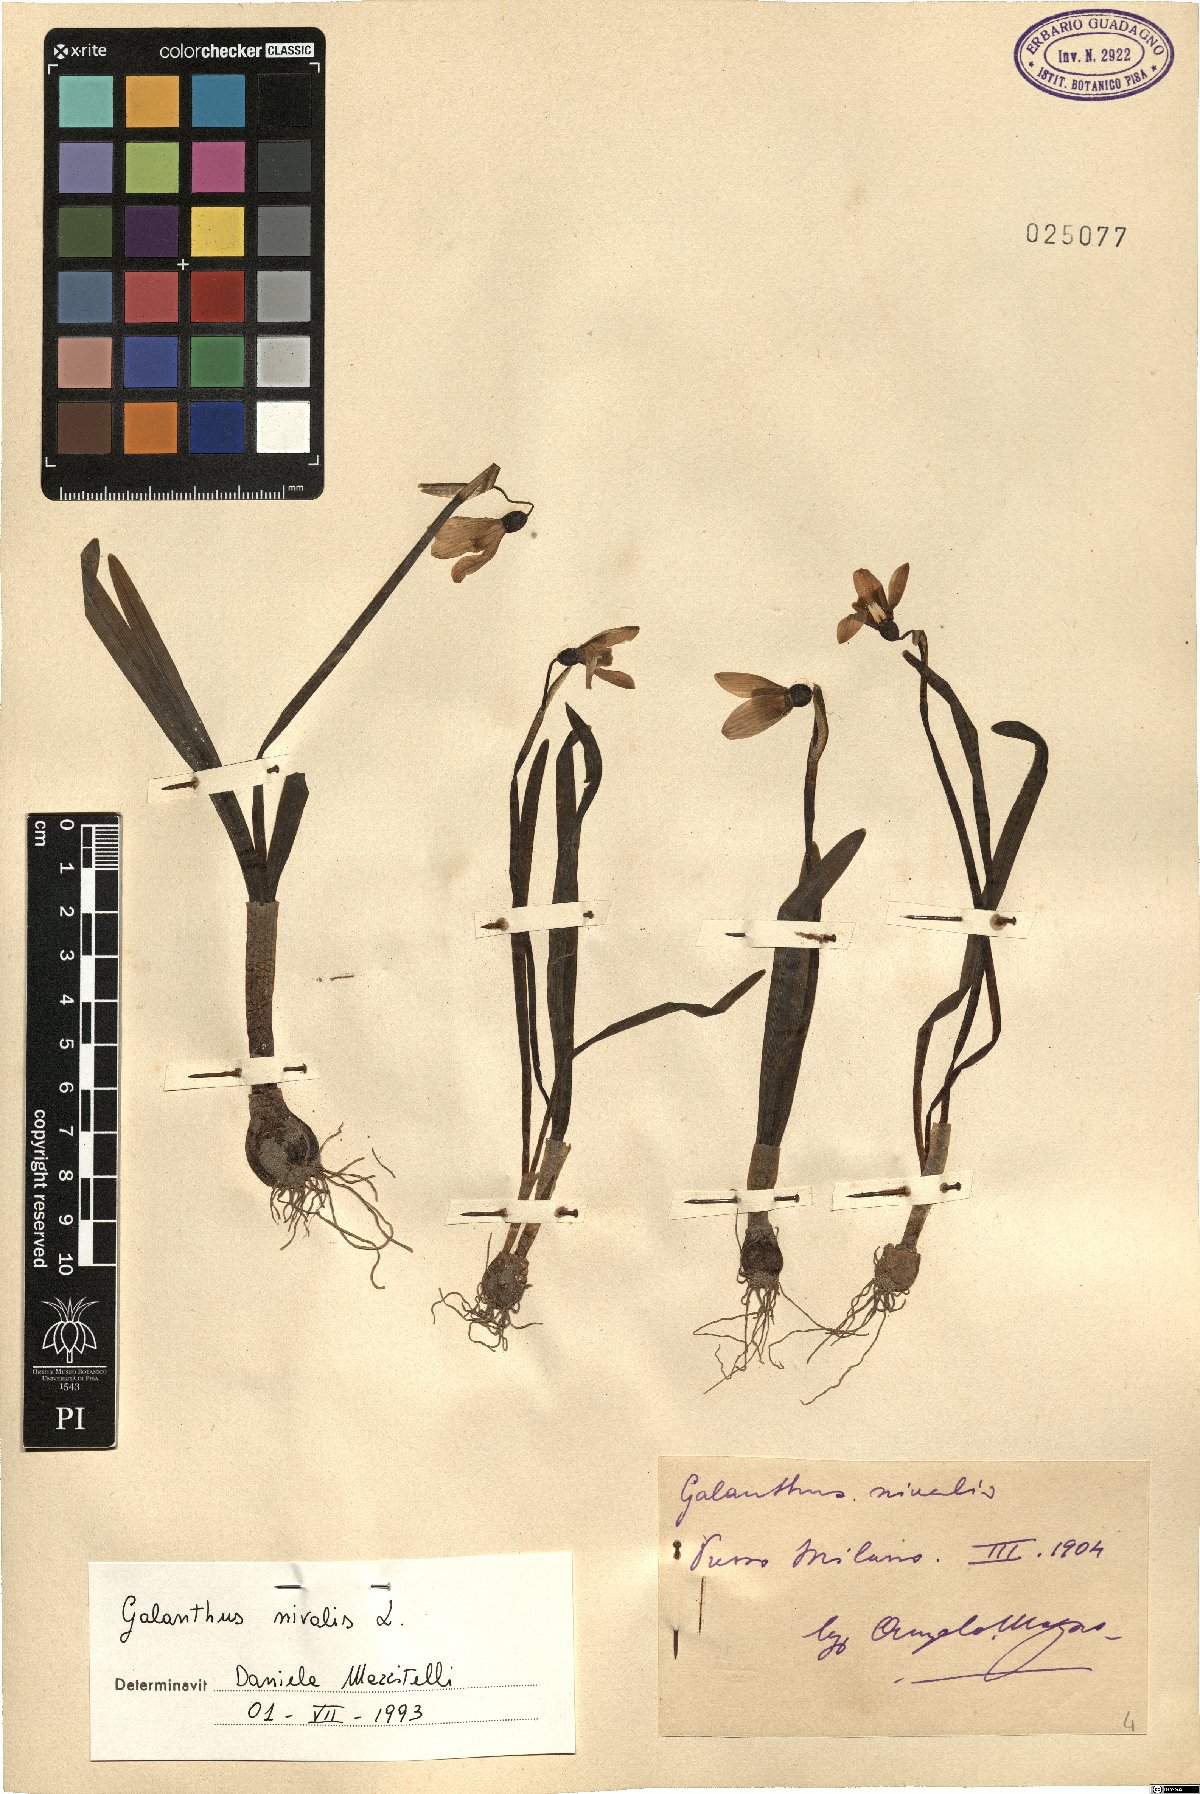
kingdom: Plantae
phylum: Tracheophyta
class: Liliopsida
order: Asparagales
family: Amaryllidaceae
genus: Galanthus
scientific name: Galanthus nivalis
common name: Snowdrop
